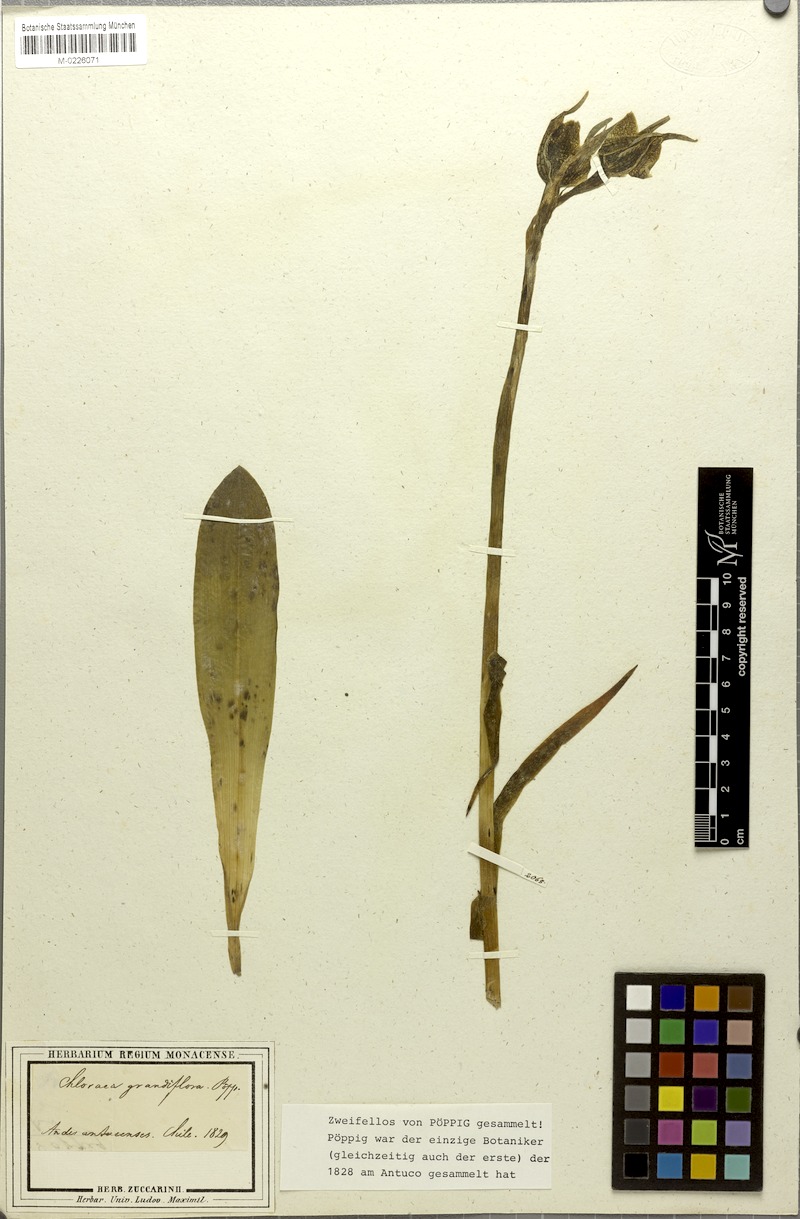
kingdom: Plantae
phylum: Tracheophyta
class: Liliopsida
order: Asparagales
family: Orchidaceae
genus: Chloraea
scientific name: Chloraea grandiflora
